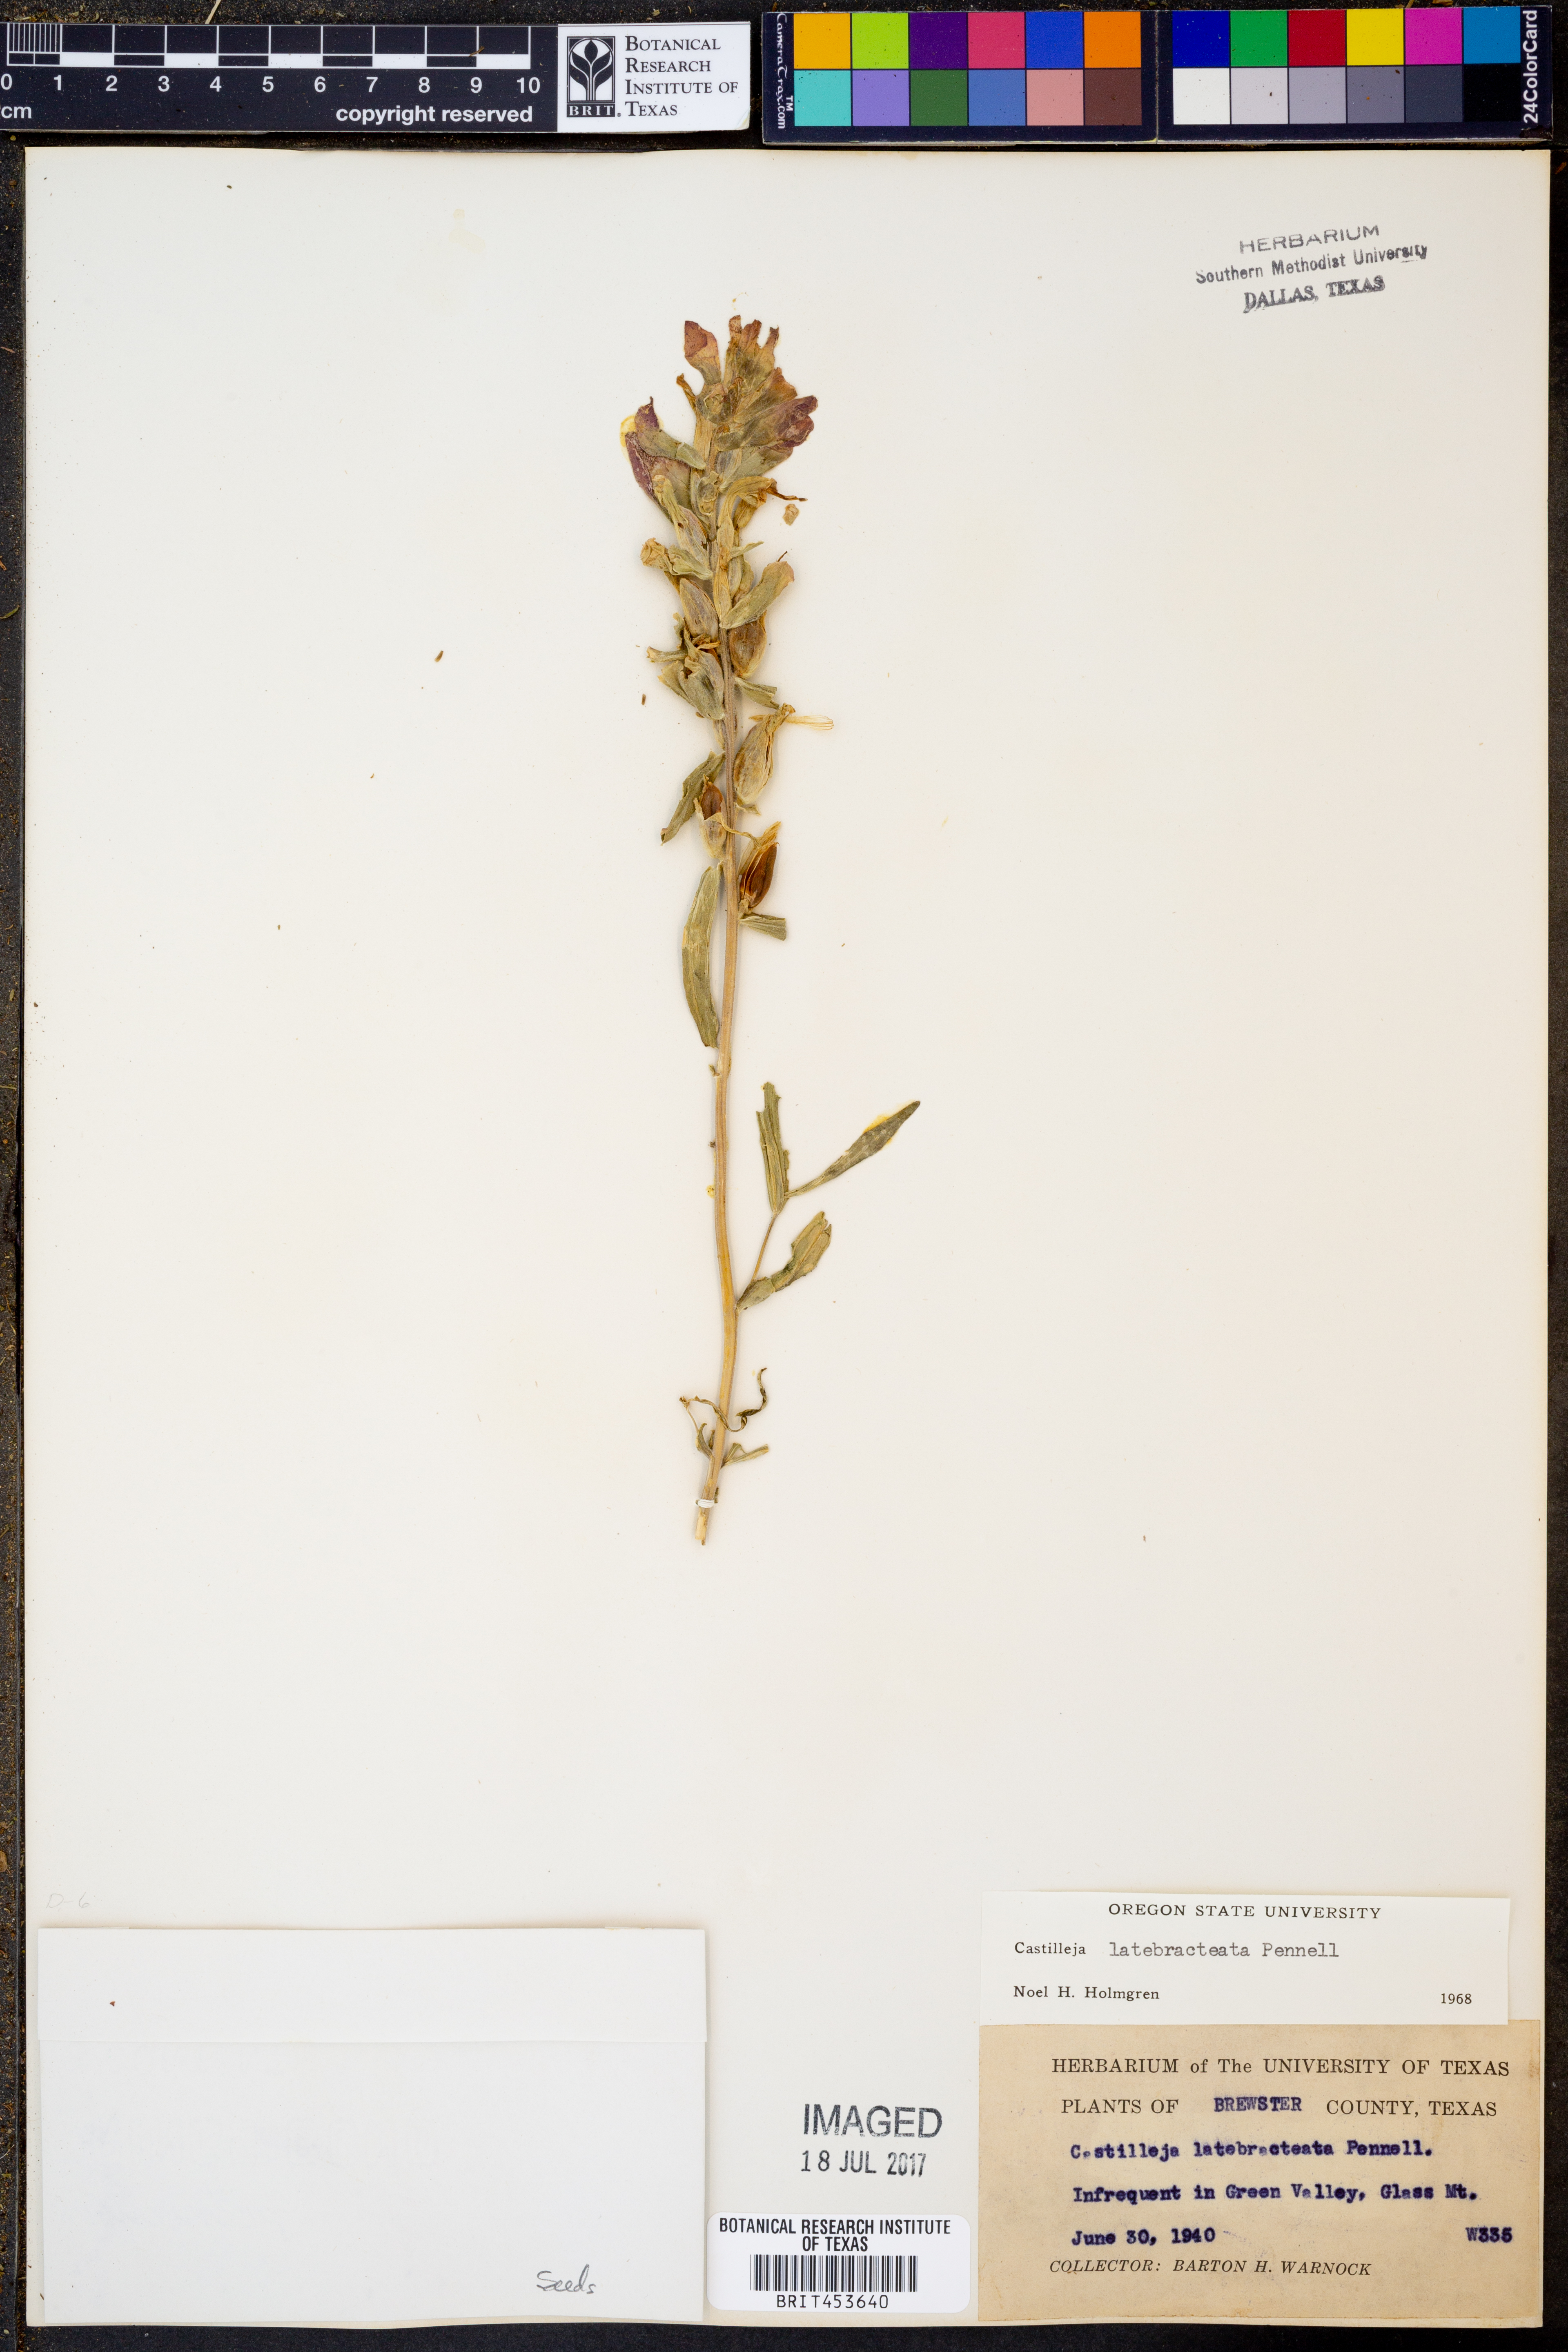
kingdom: Plantae
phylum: Tracheophyta
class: Magnoliopsida
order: Lamiales
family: Orobanchaceae
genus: Castilleja
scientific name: Castilleja rigida
